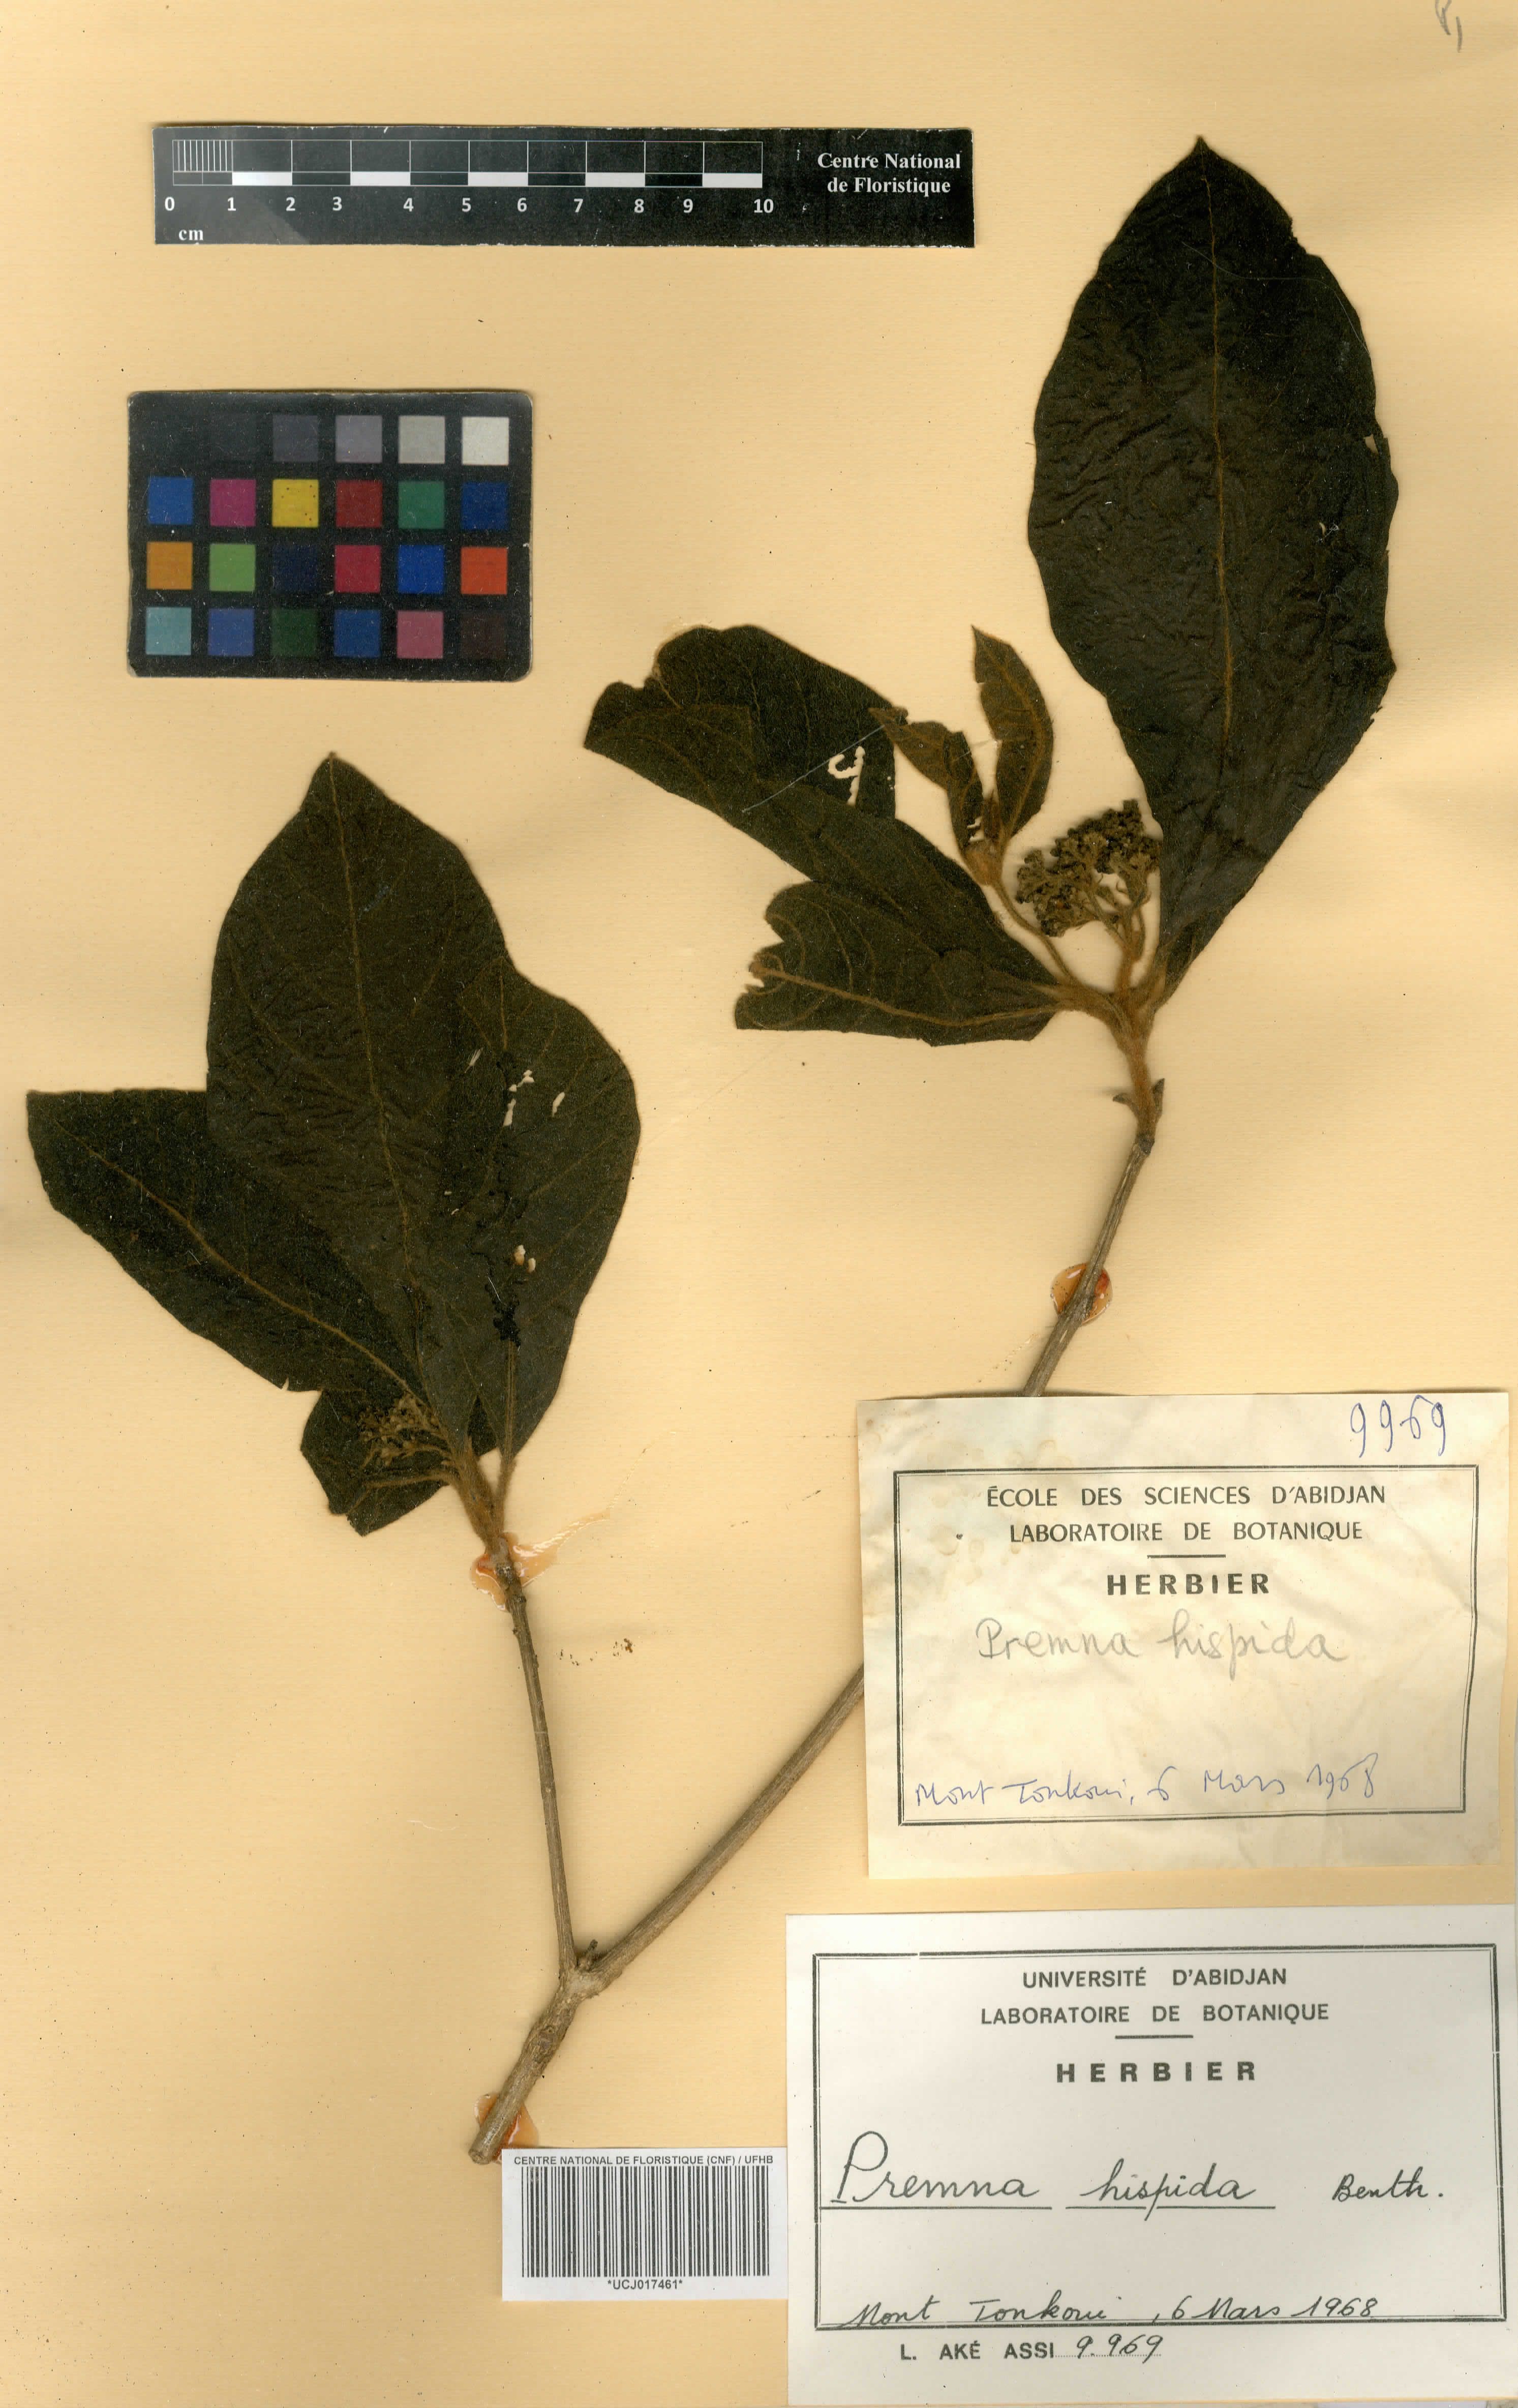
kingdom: Plantae
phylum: Tracheophyta
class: Magnoliopsida
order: Lamiales
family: Lamiaceae
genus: Premna
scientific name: Premna hispida
